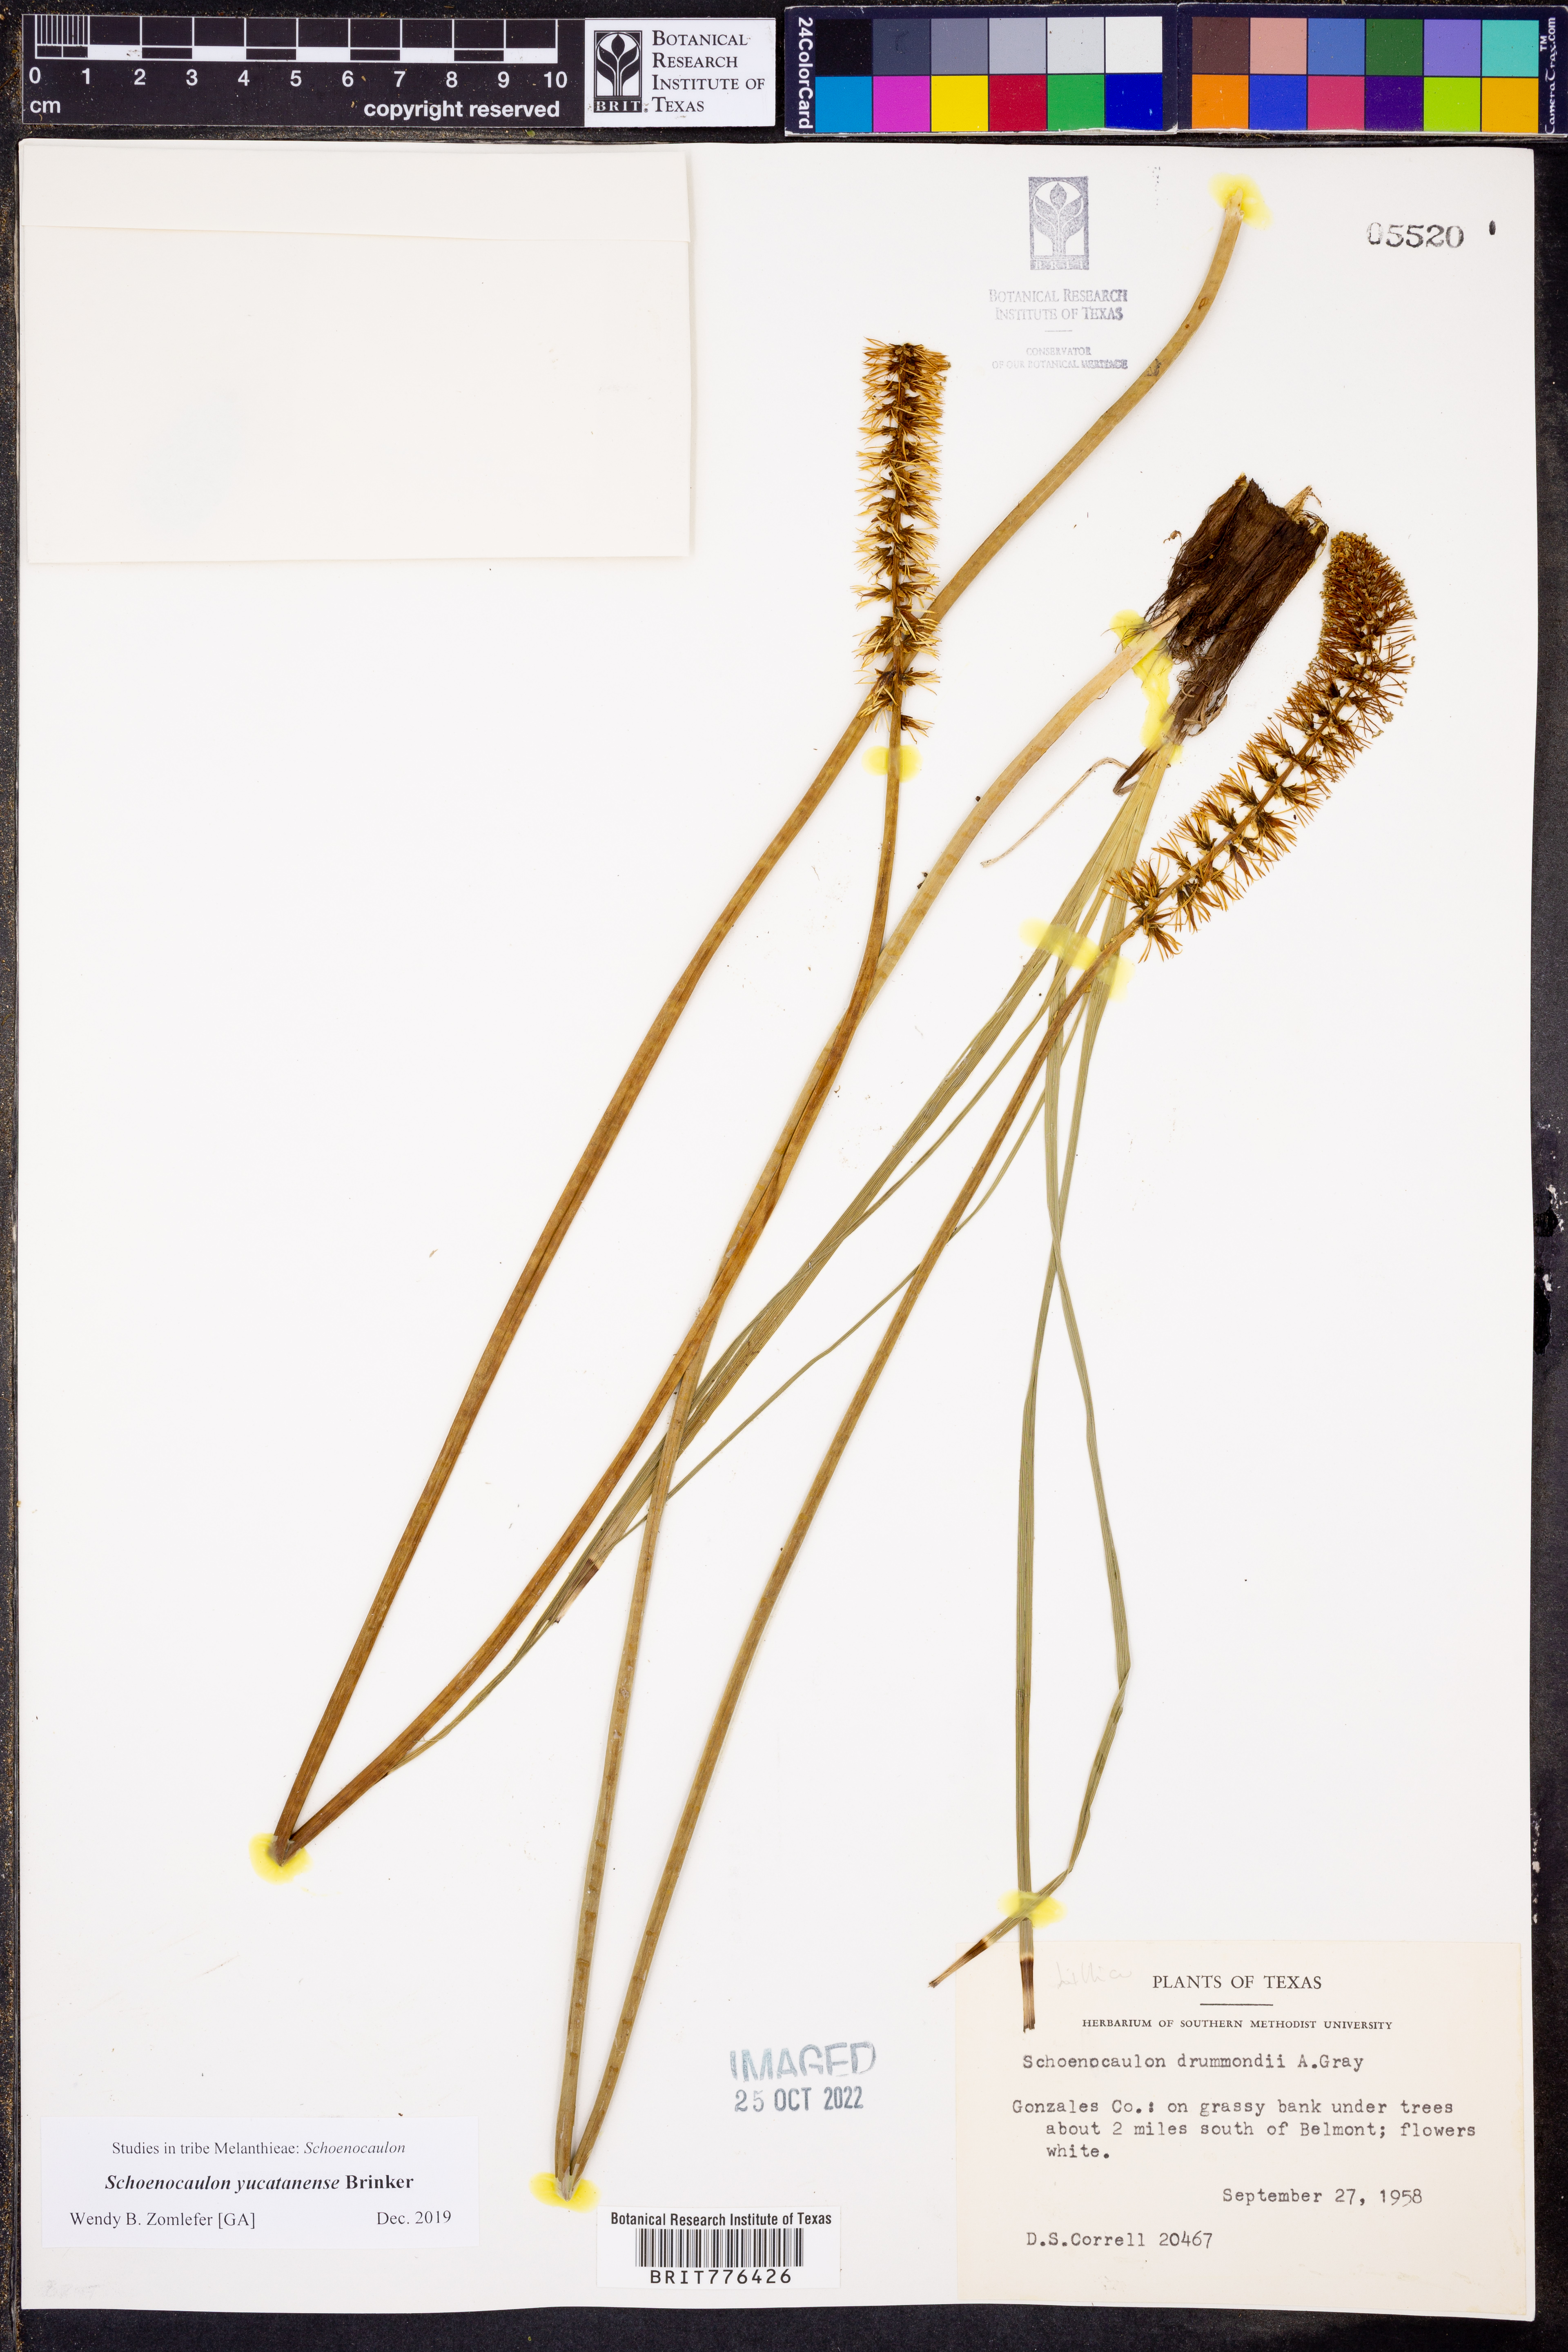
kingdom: Plantae
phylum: Tracheophyta
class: Liliopsida
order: Liliales
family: Melanthiaceae
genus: Schoenocaulon
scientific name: Schoenocaulon ghiesbreghtii
